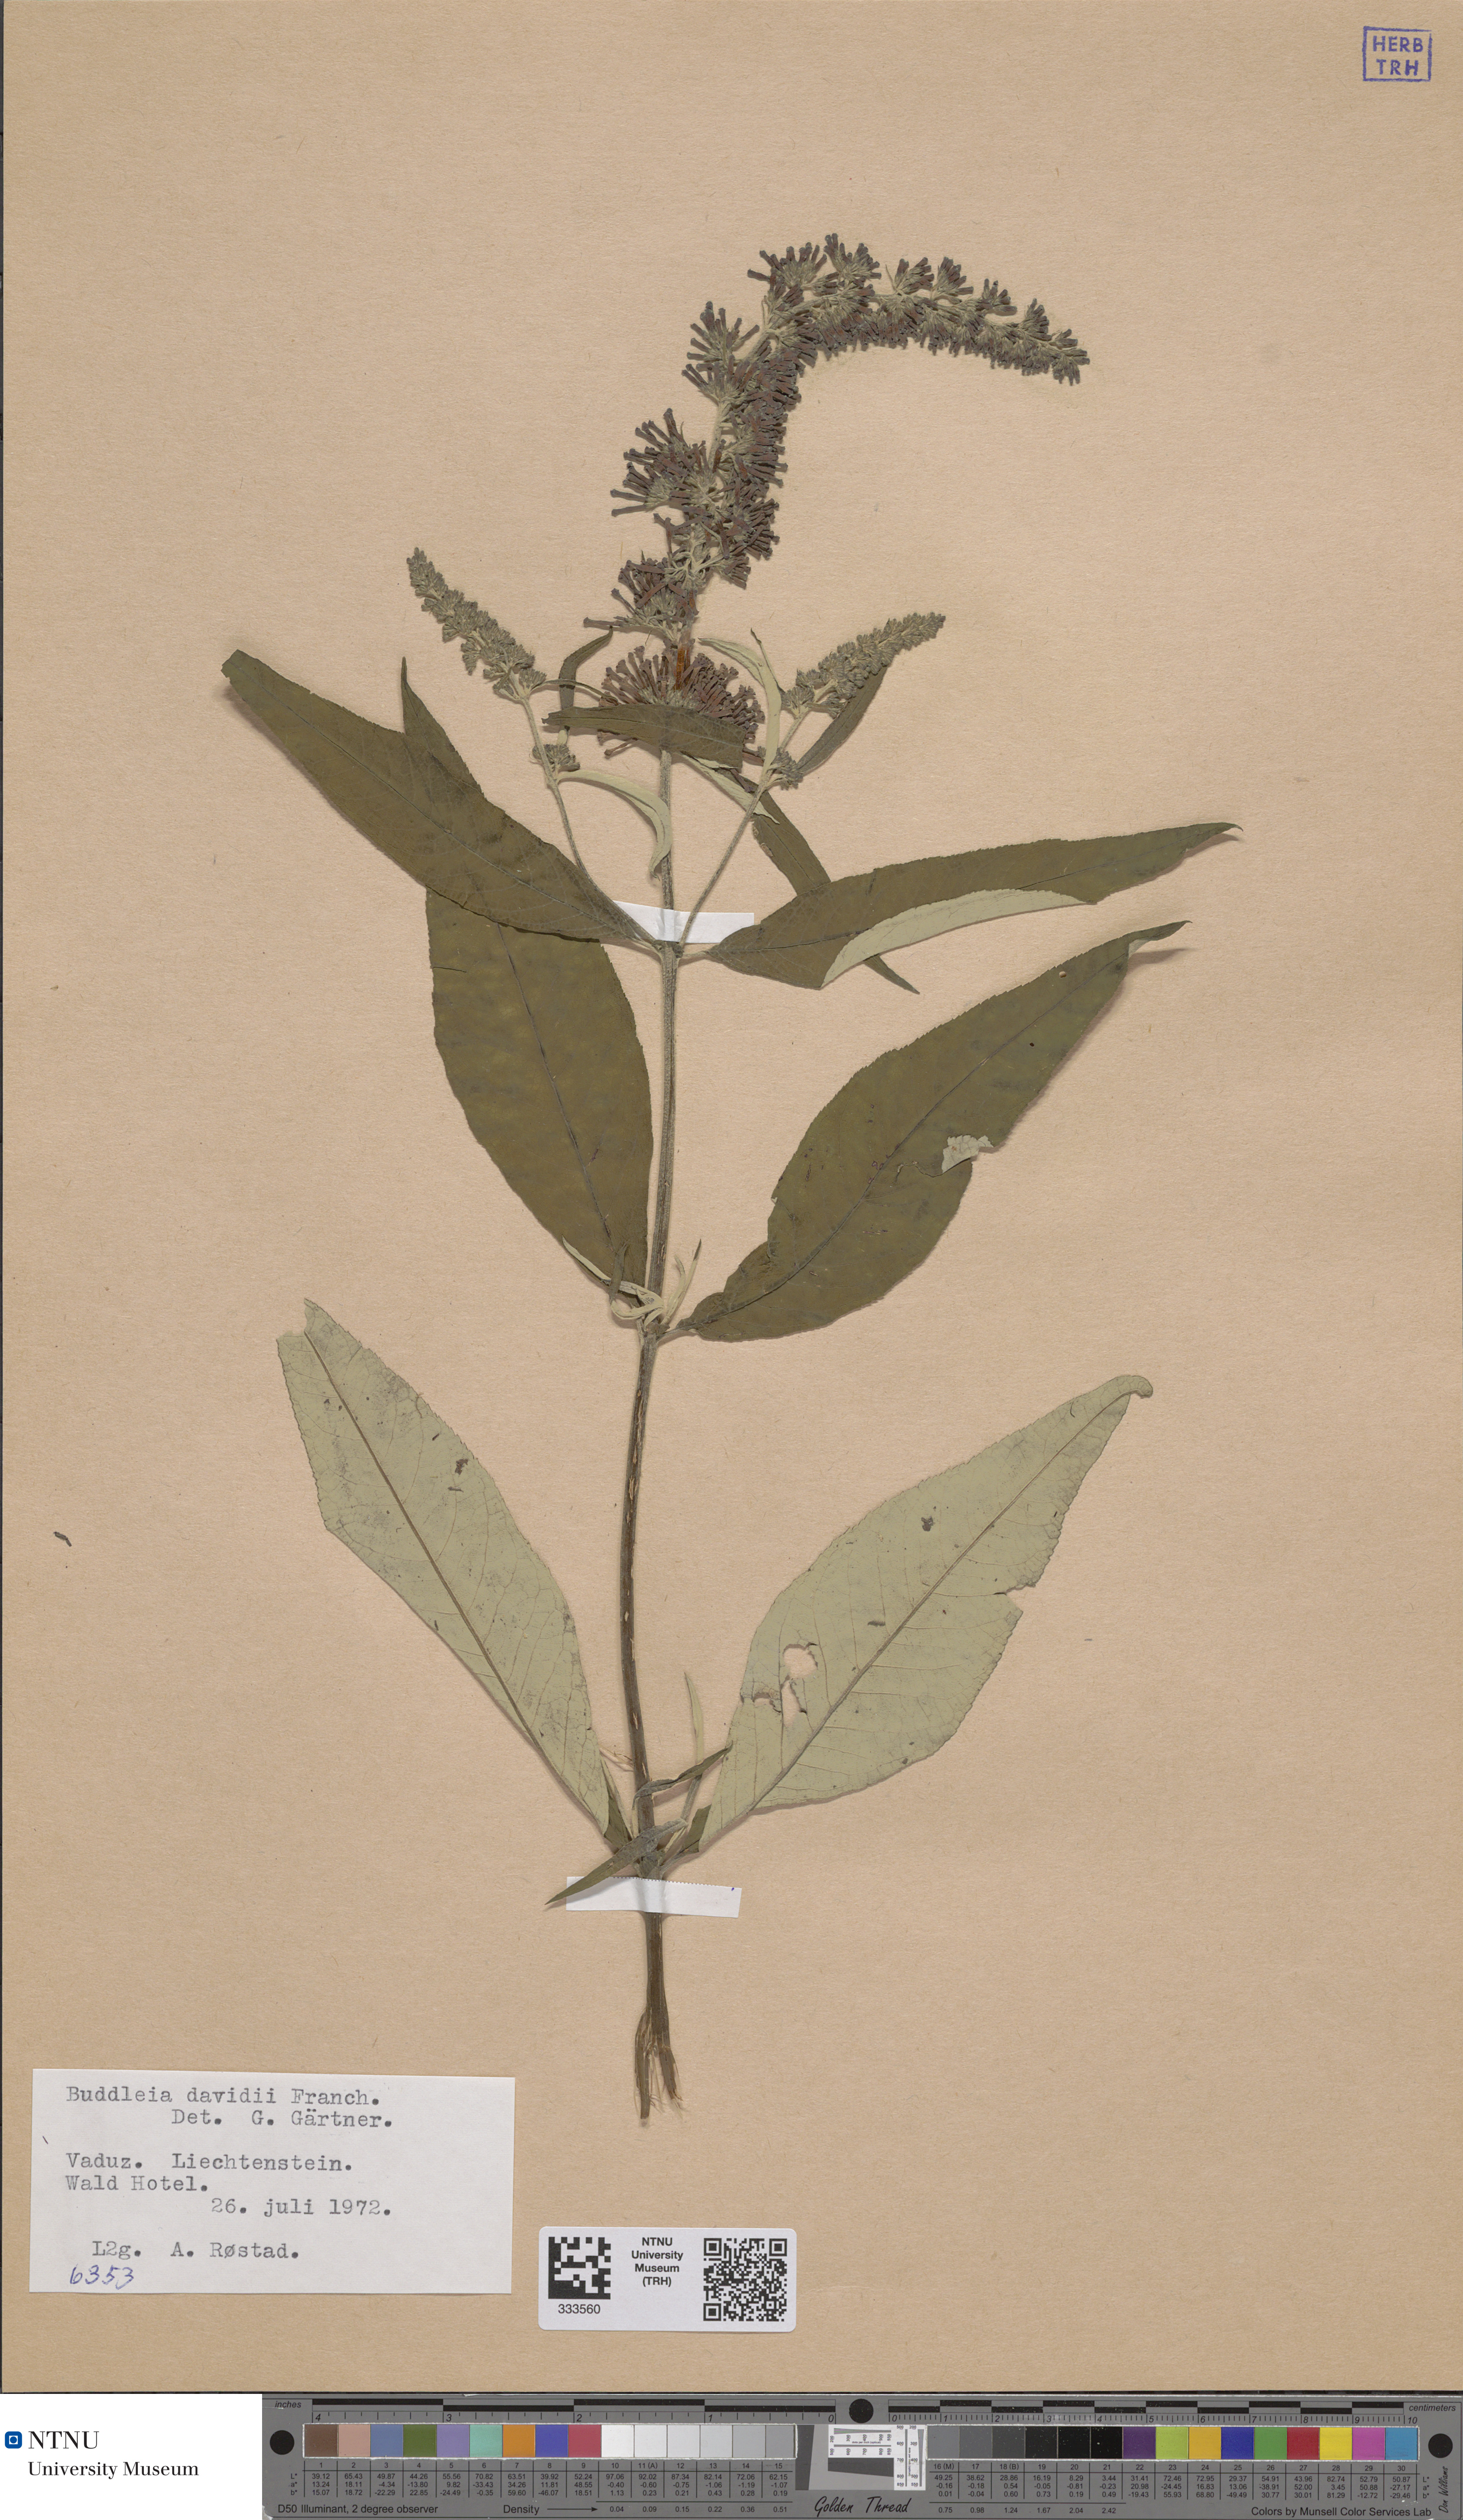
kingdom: Plantae
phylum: Tracheophyta
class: Magnoliopsida
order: Lamiales
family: Scrophulariaceae
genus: Buddleja
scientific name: Buddleja davidii
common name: Butterfly-bush
